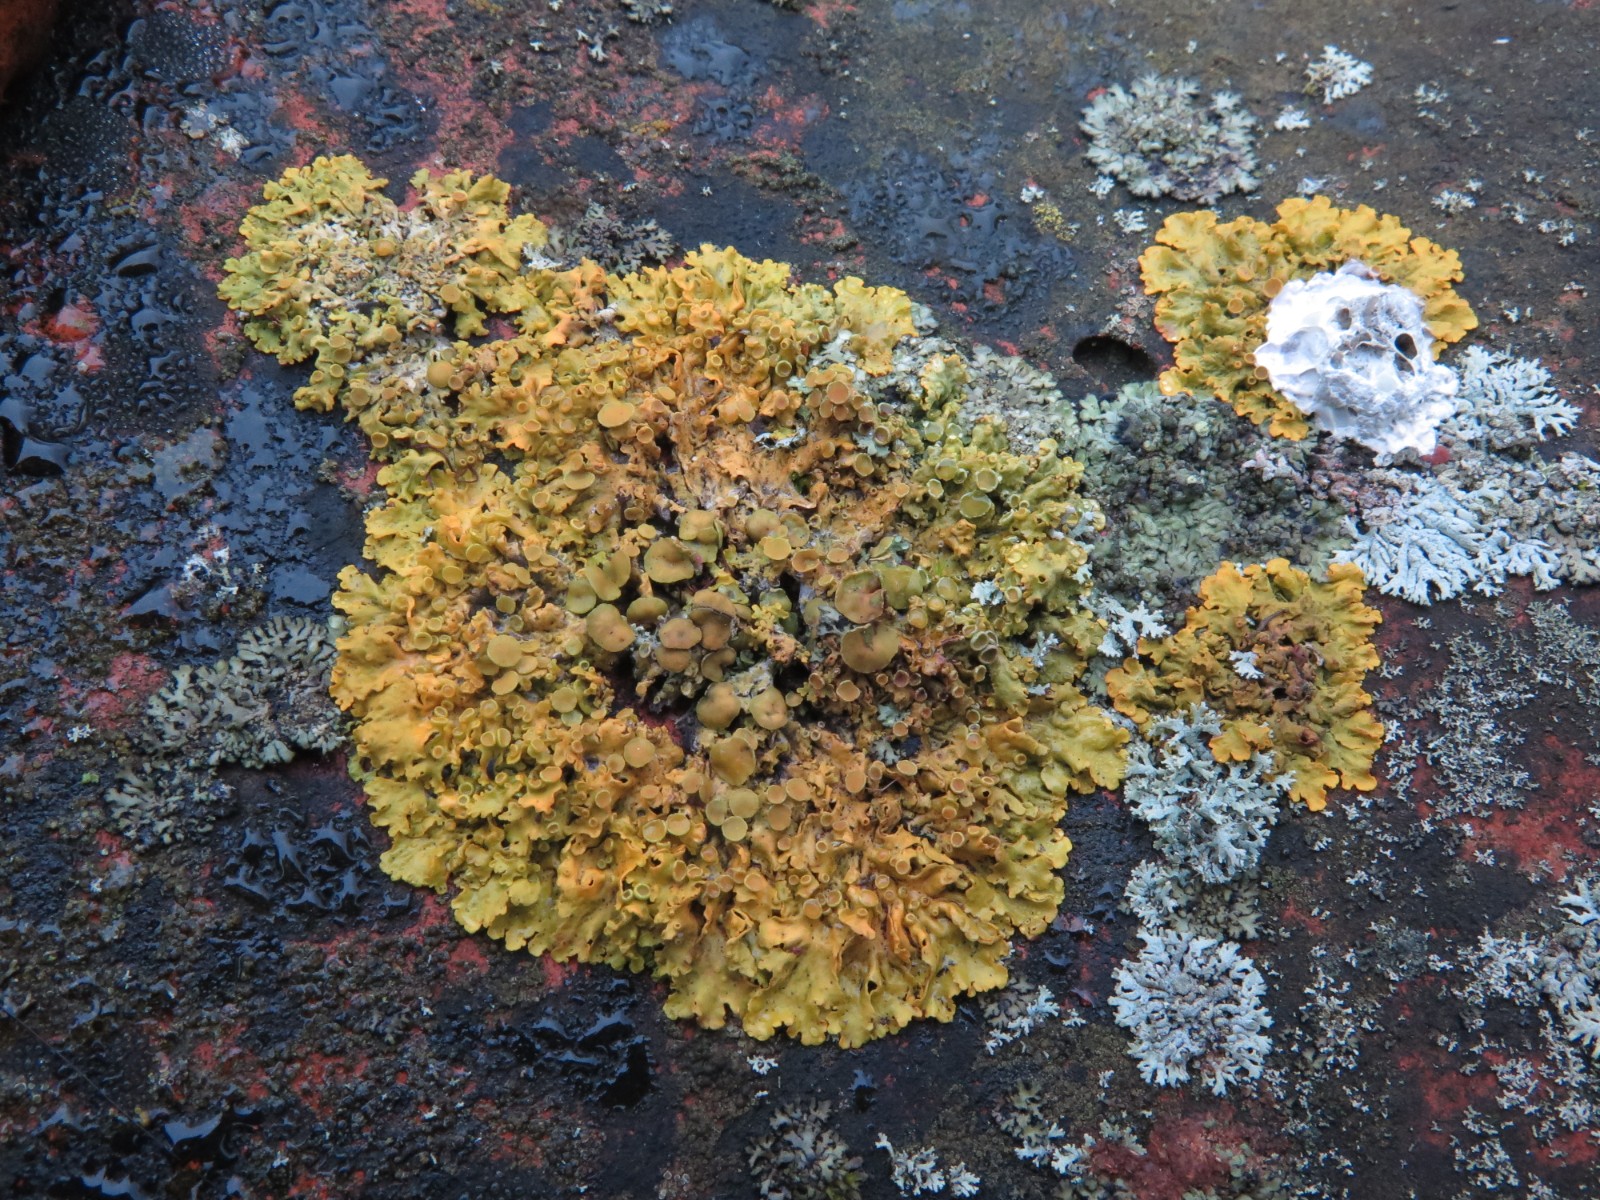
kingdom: Fungi
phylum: Ascomycota
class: Lecanoromycetes
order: Teloschistales
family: Teloschistaceae
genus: Xanthoria
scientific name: Xanthoria parietina
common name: almindelig væggelav
